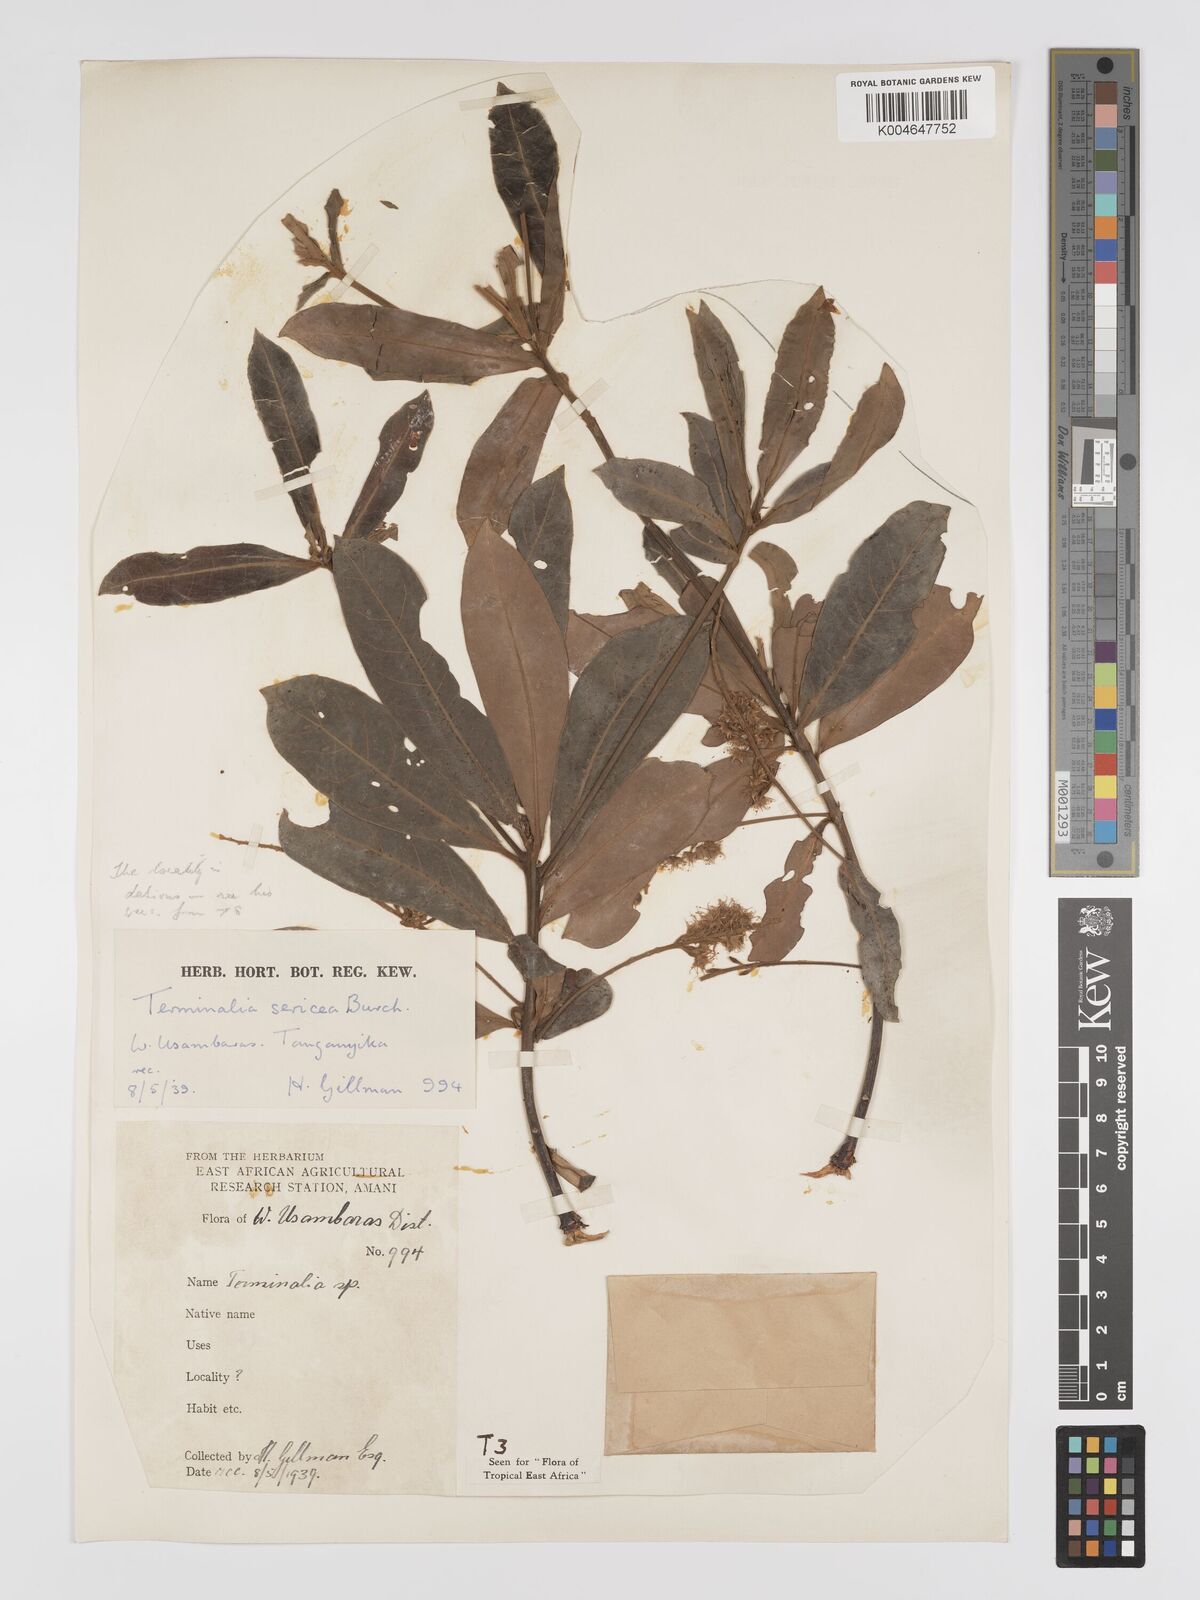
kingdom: Plantae
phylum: Tracheophyta
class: Magnoliopsida
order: Myrtales
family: Combretaceae
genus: Terminalia
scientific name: Terminalia
